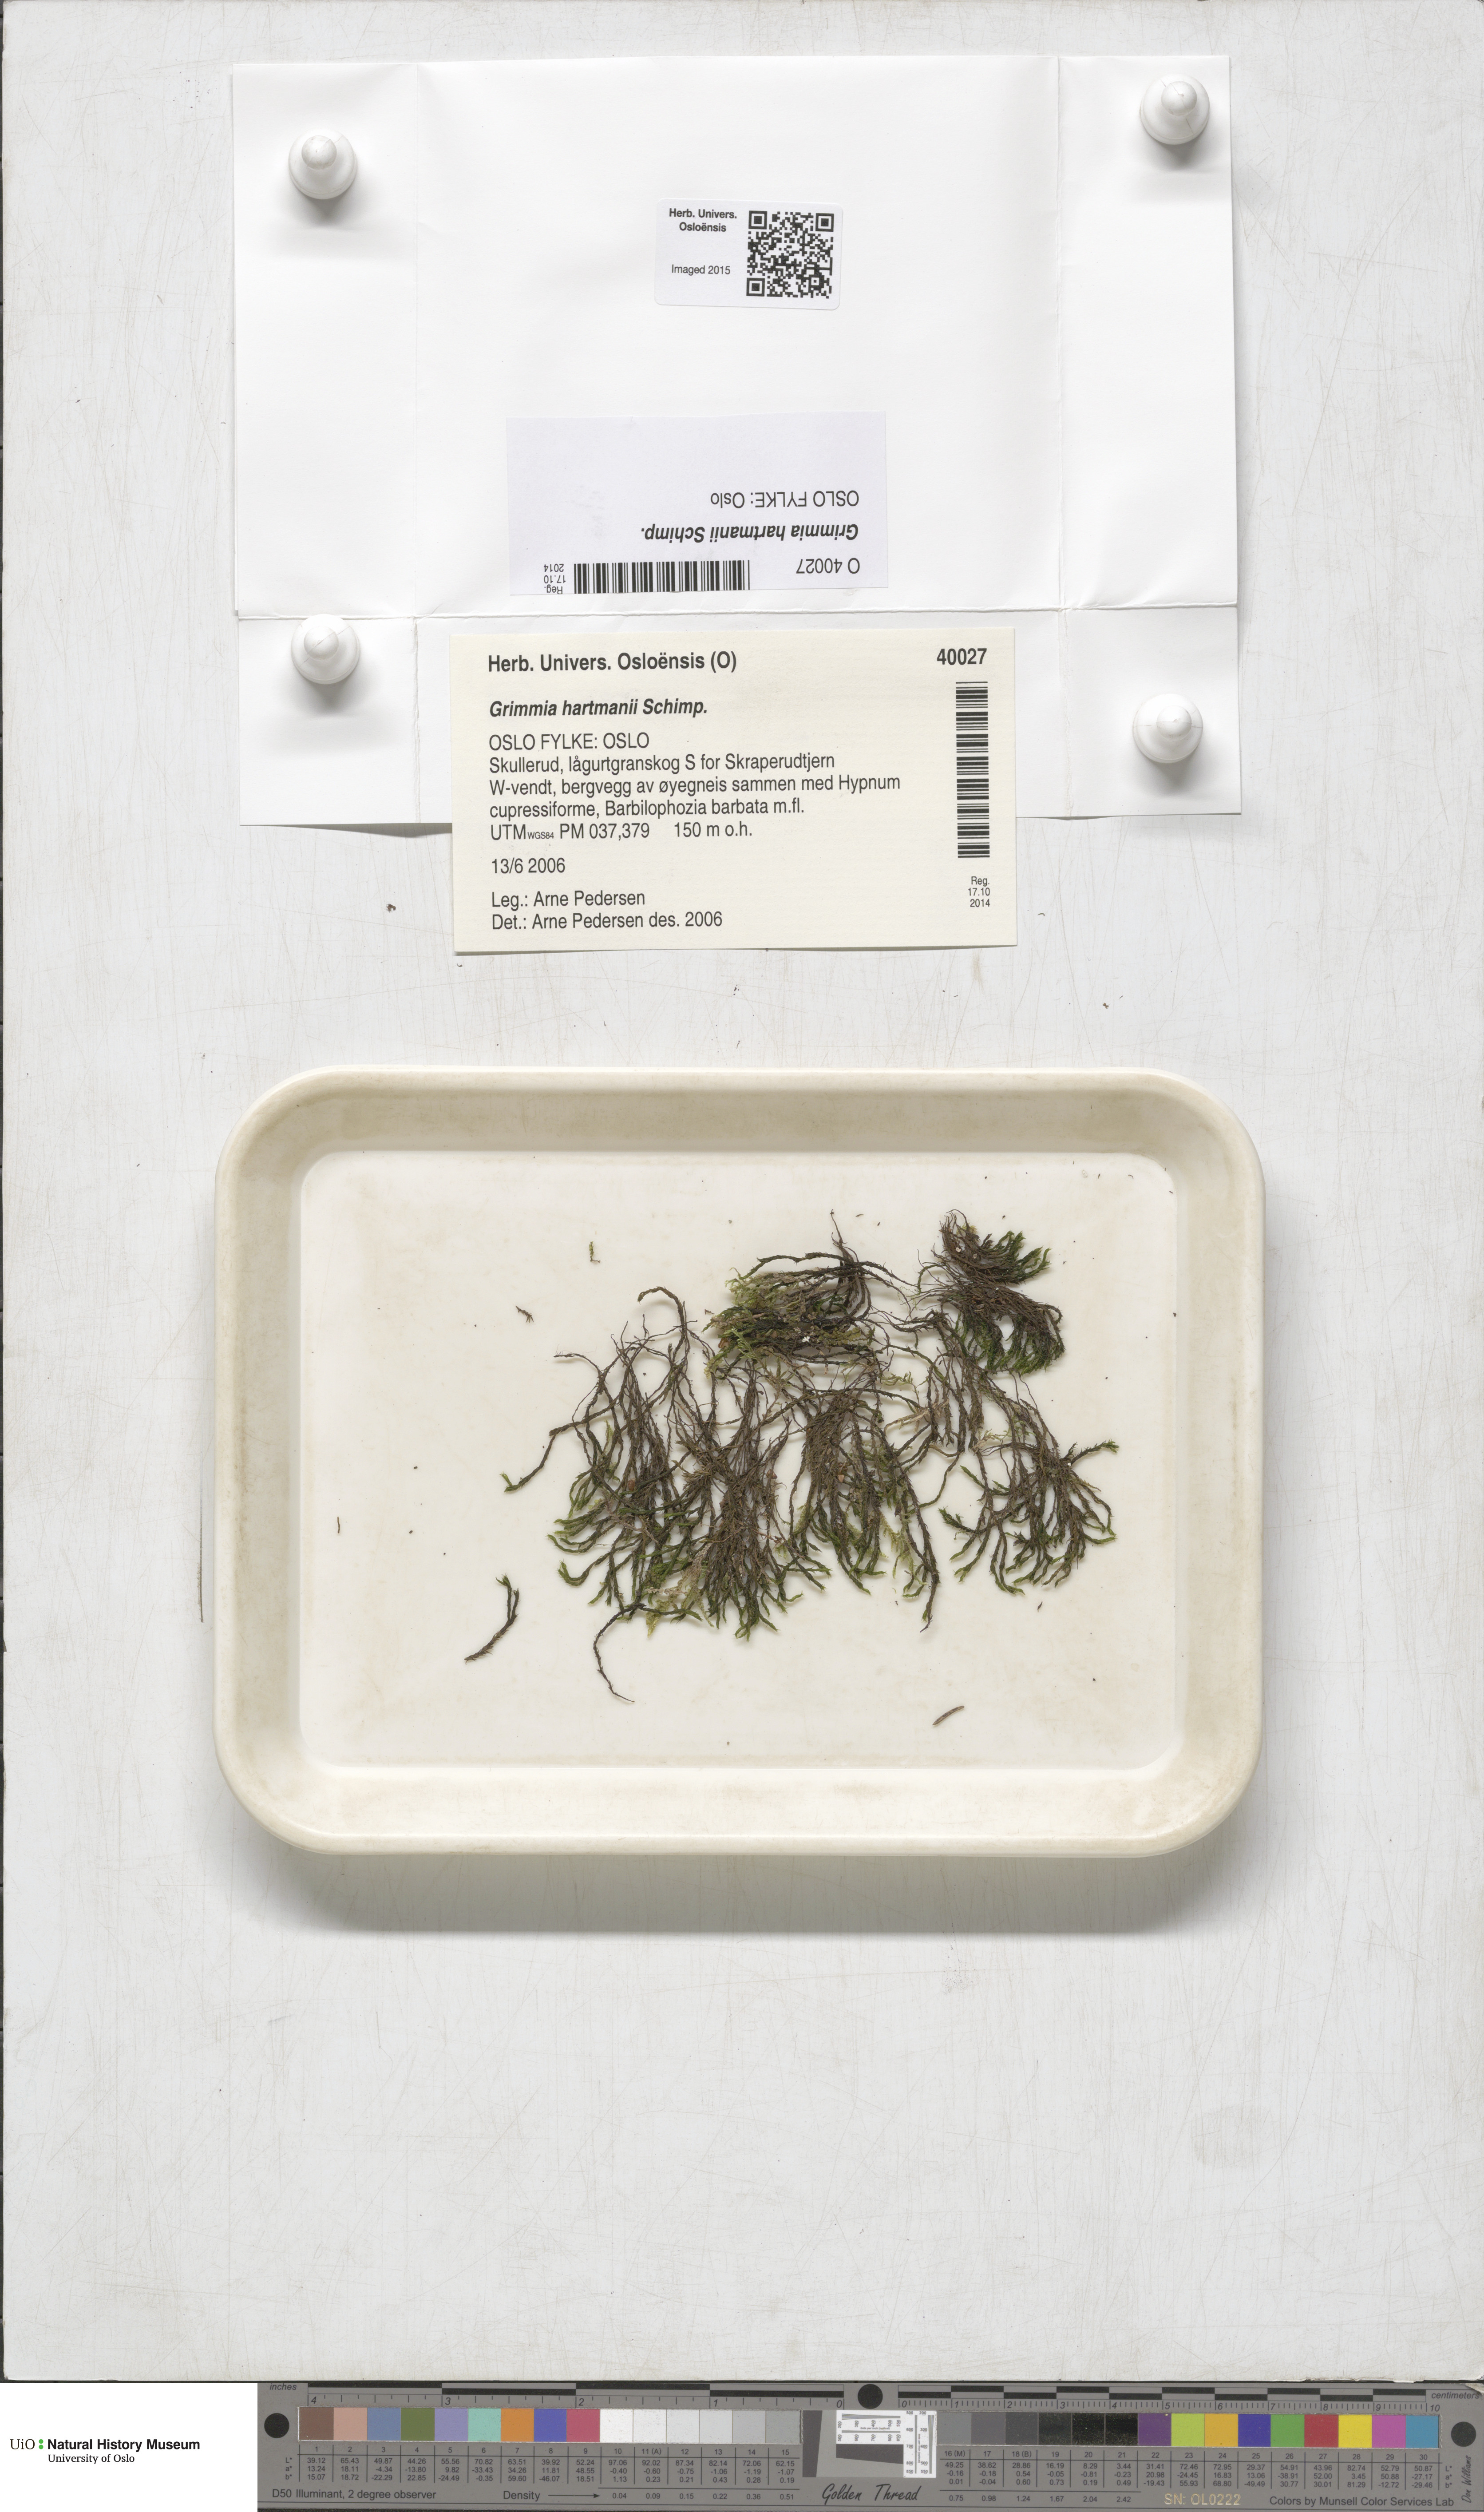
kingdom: Plantae
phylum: Bryophyta
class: Bryopsida
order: Grimmiales
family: Grimmiaceae
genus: Grimmia
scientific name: Grimmia hartmanii
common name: Hartman's grimmia
